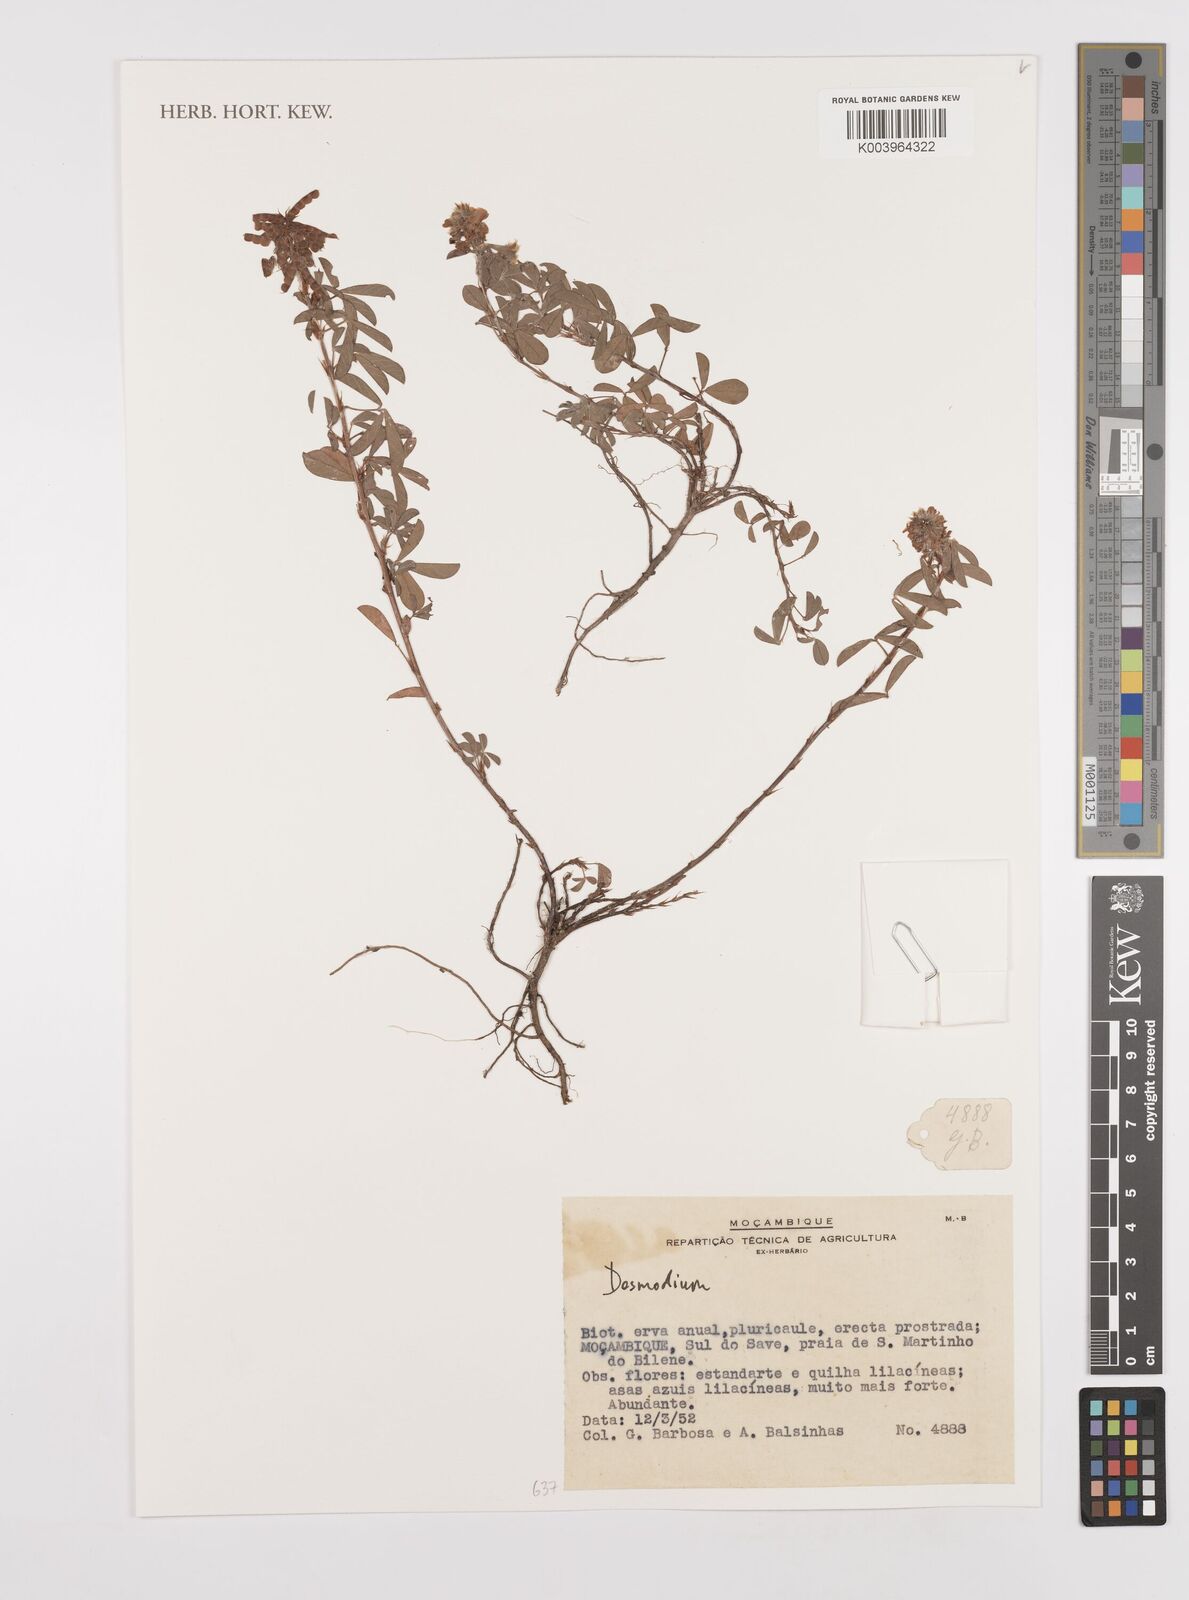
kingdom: Plantae
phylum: Tracheophyta
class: Magnoliopsida
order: Fabales
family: Fabaceae
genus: Desmodium
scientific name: Desmodium
